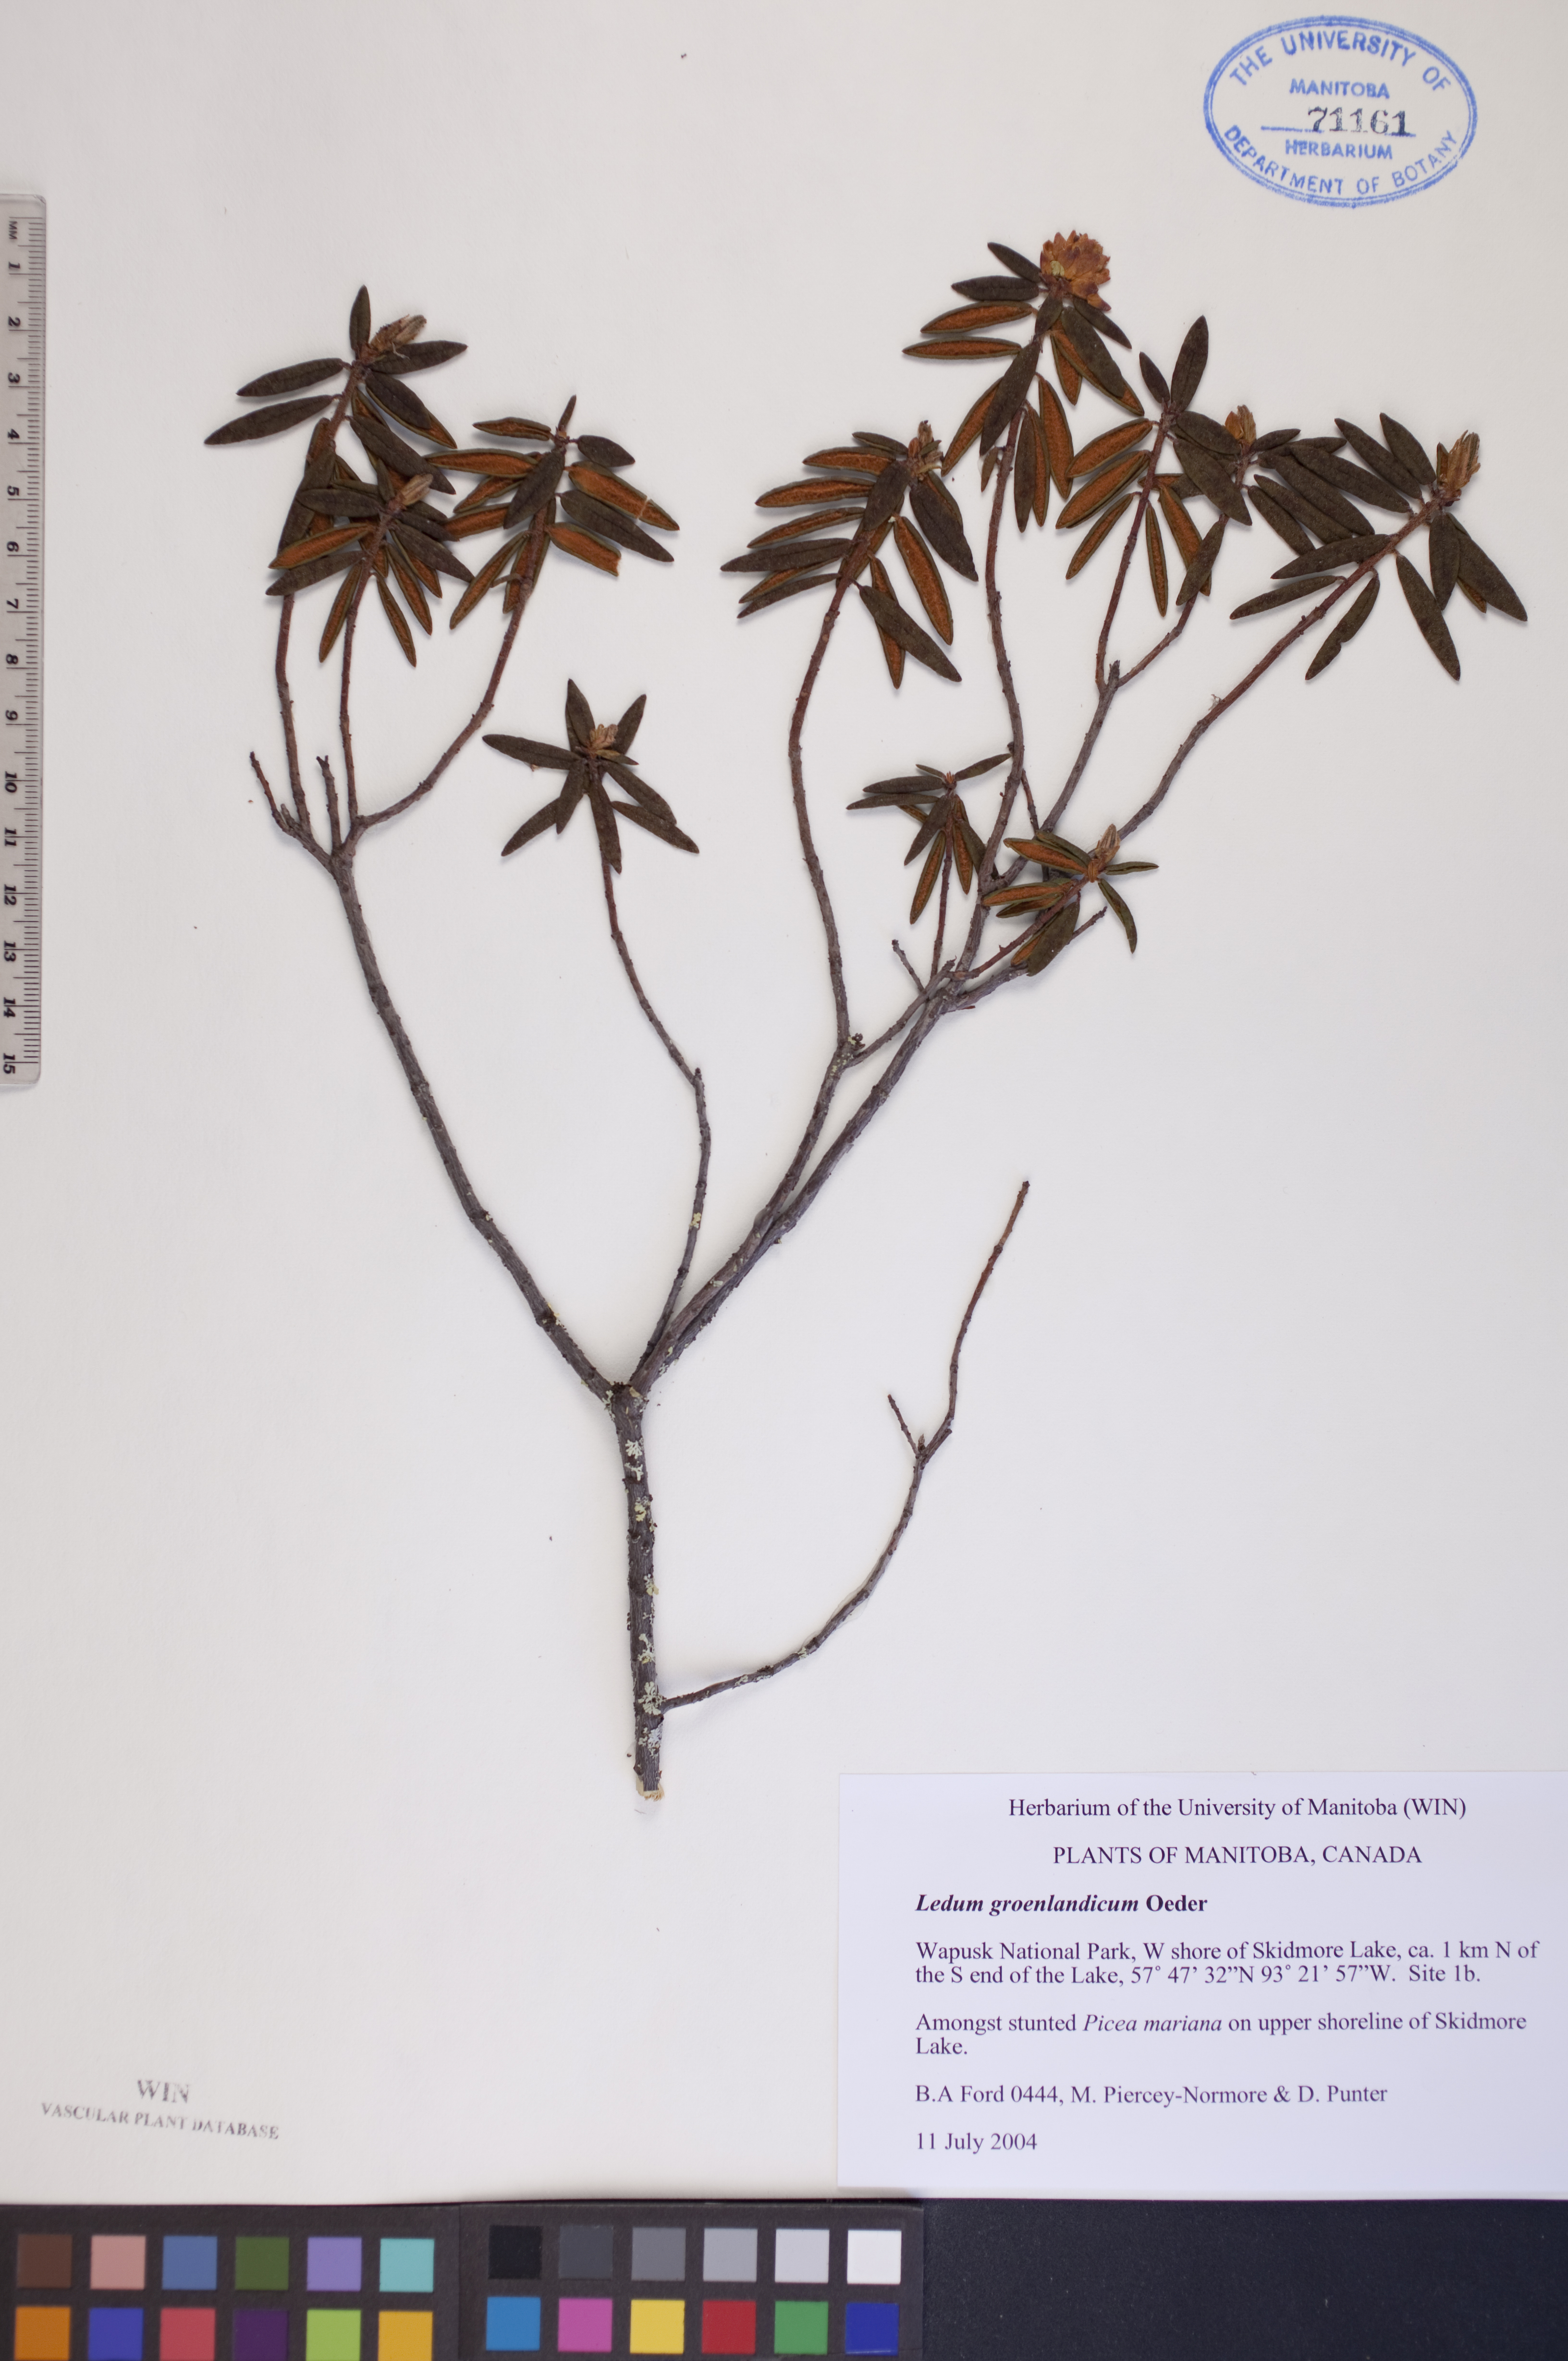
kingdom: Plantae
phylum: Tracheophyta
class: Magnoliopsida
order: Ericales
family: Ericaceae
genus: Rhododendron
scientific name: Rhododendron groenlandicum
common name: Bog labrador tea
